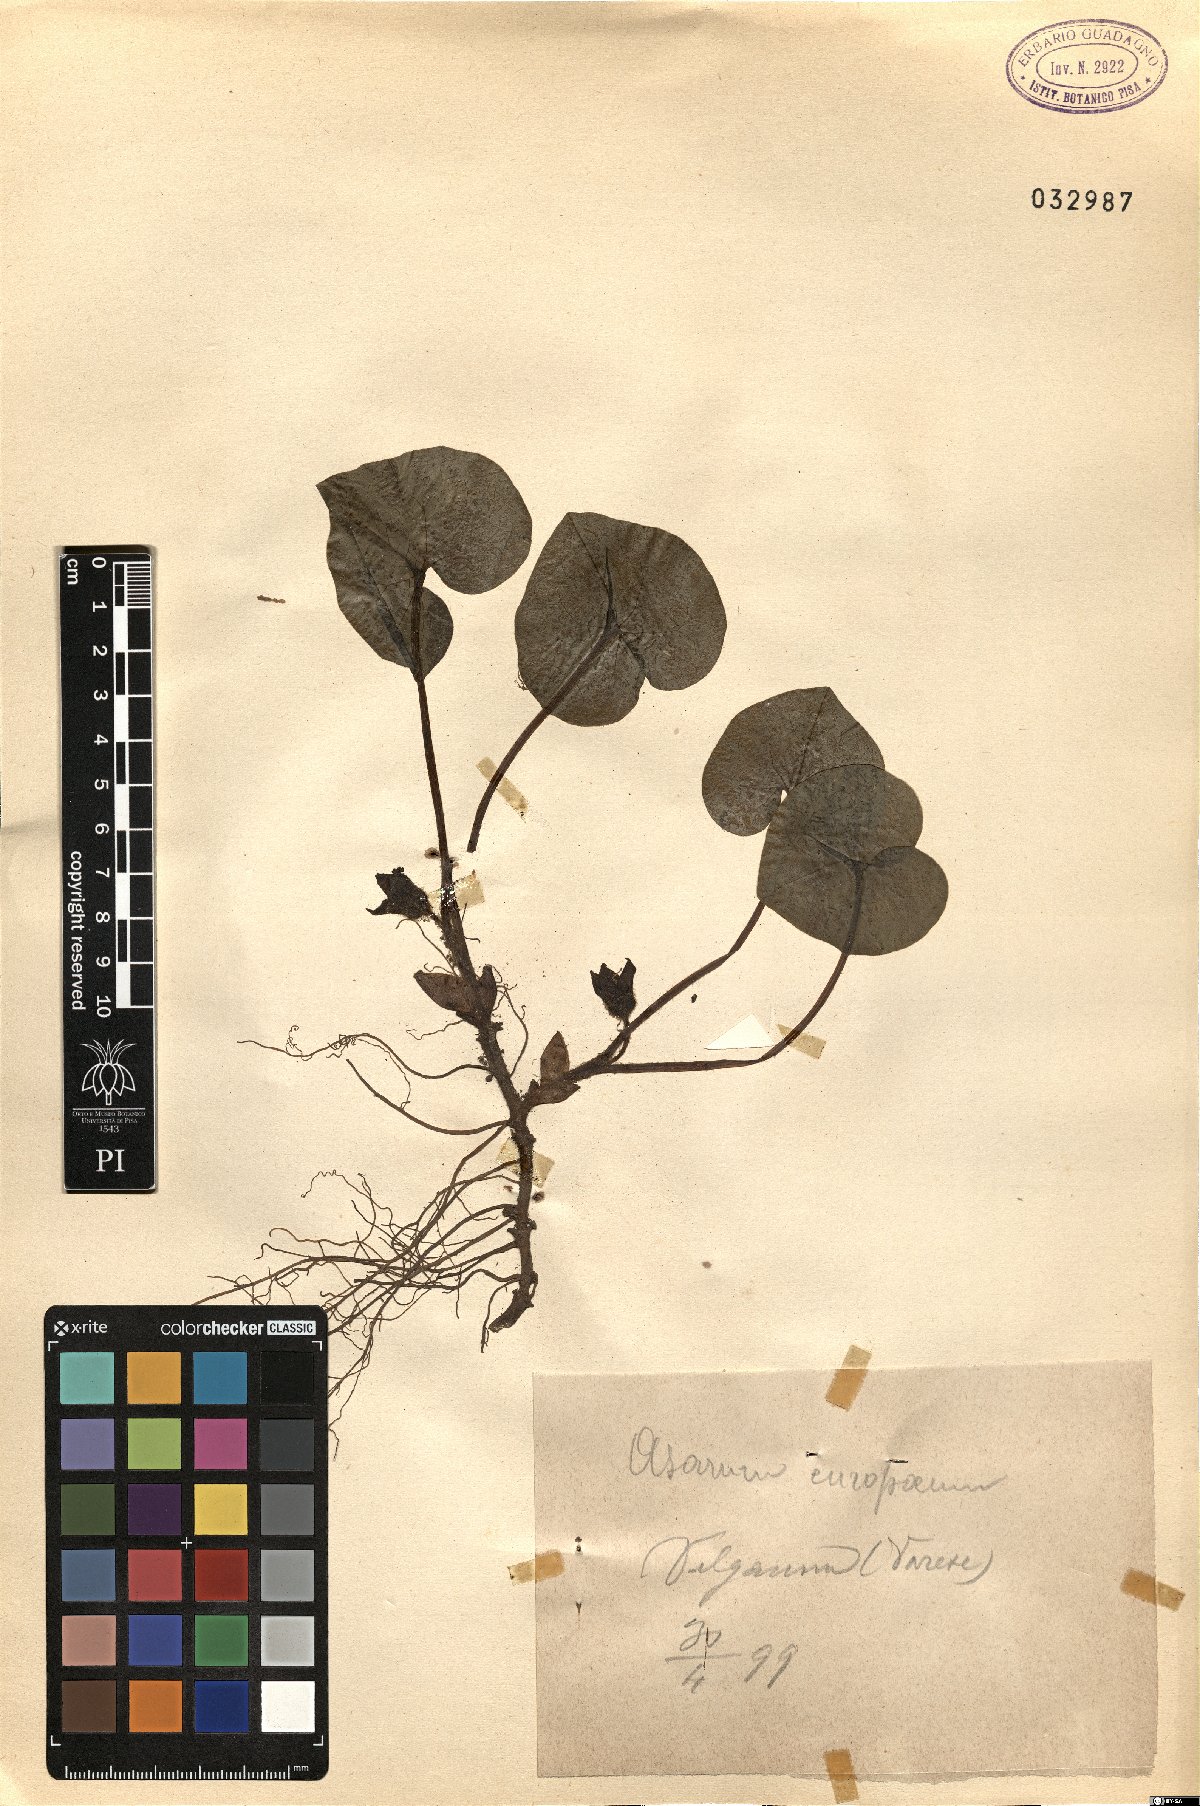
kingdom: Plantae
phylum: Tracheophyta
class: Magnoliopsida
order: Piperales
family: Aristolochiaceae
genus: Asarum
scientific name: Asarum europaeum
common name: Asarabacca
